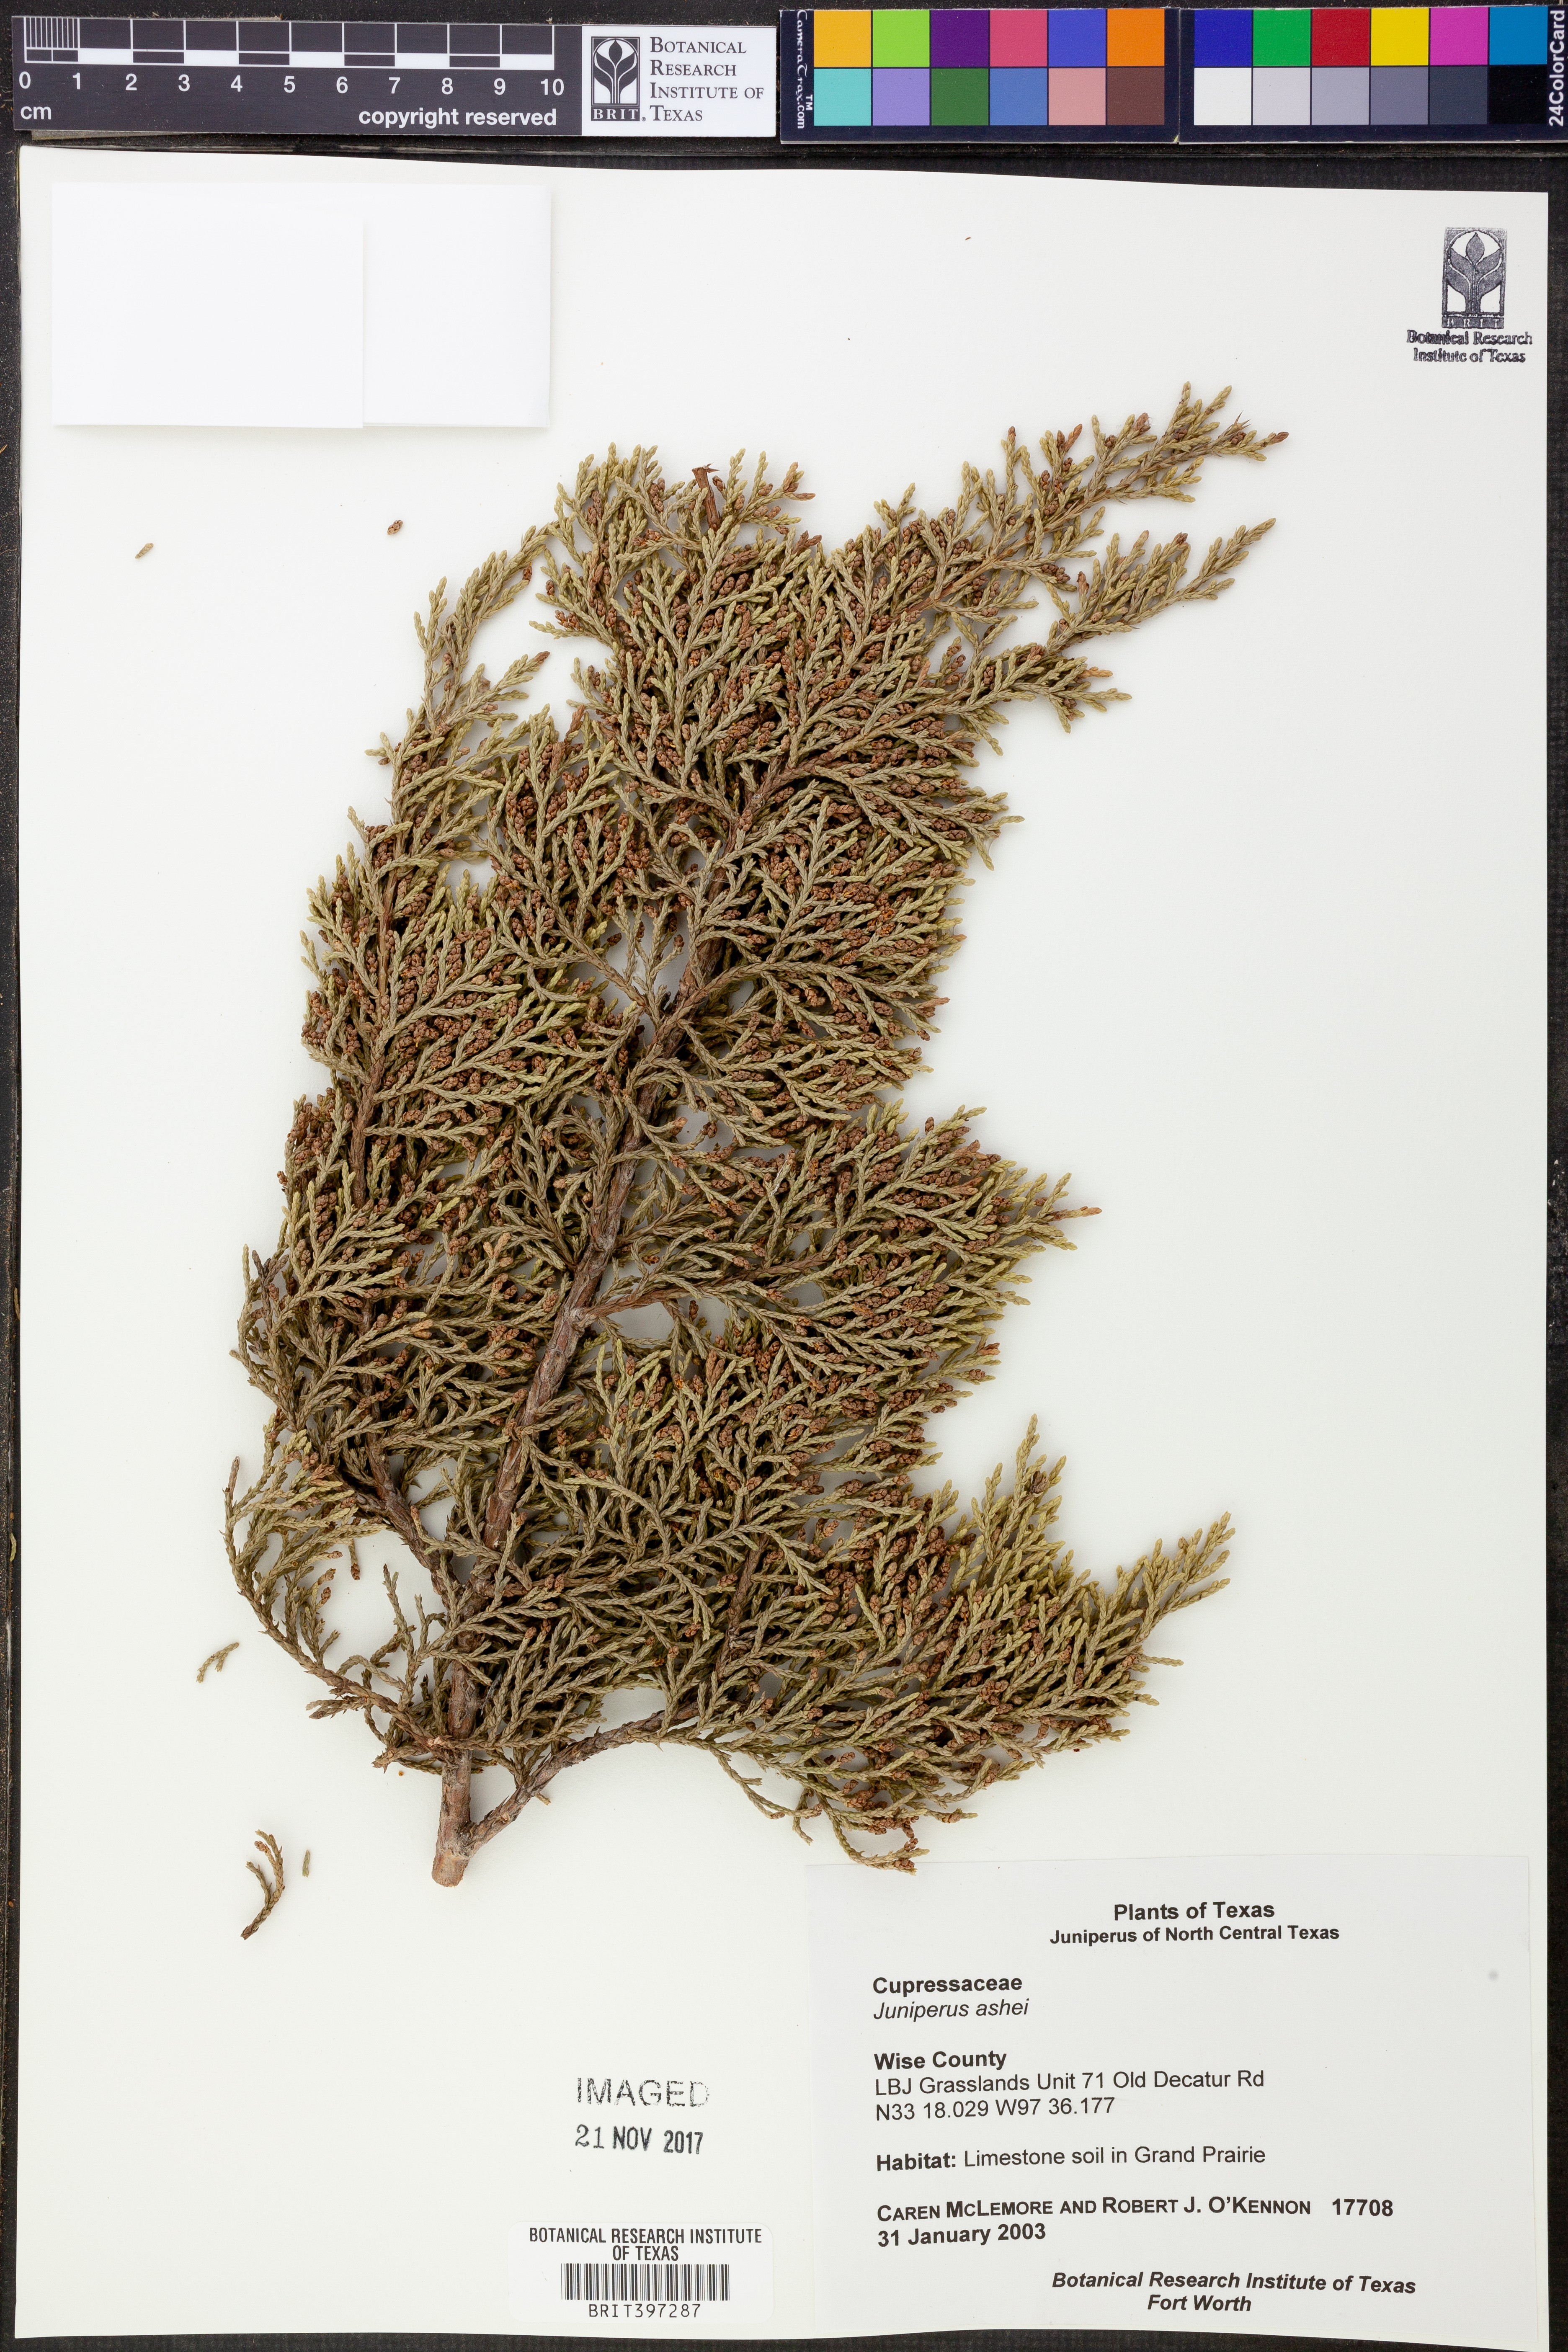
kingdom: Plantae
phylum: Tracheophyta
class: Pinopsida
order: Pinales
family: Cupressaceae
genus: Juniperus
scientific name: Juniperus ashei
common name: Mexican juniper
